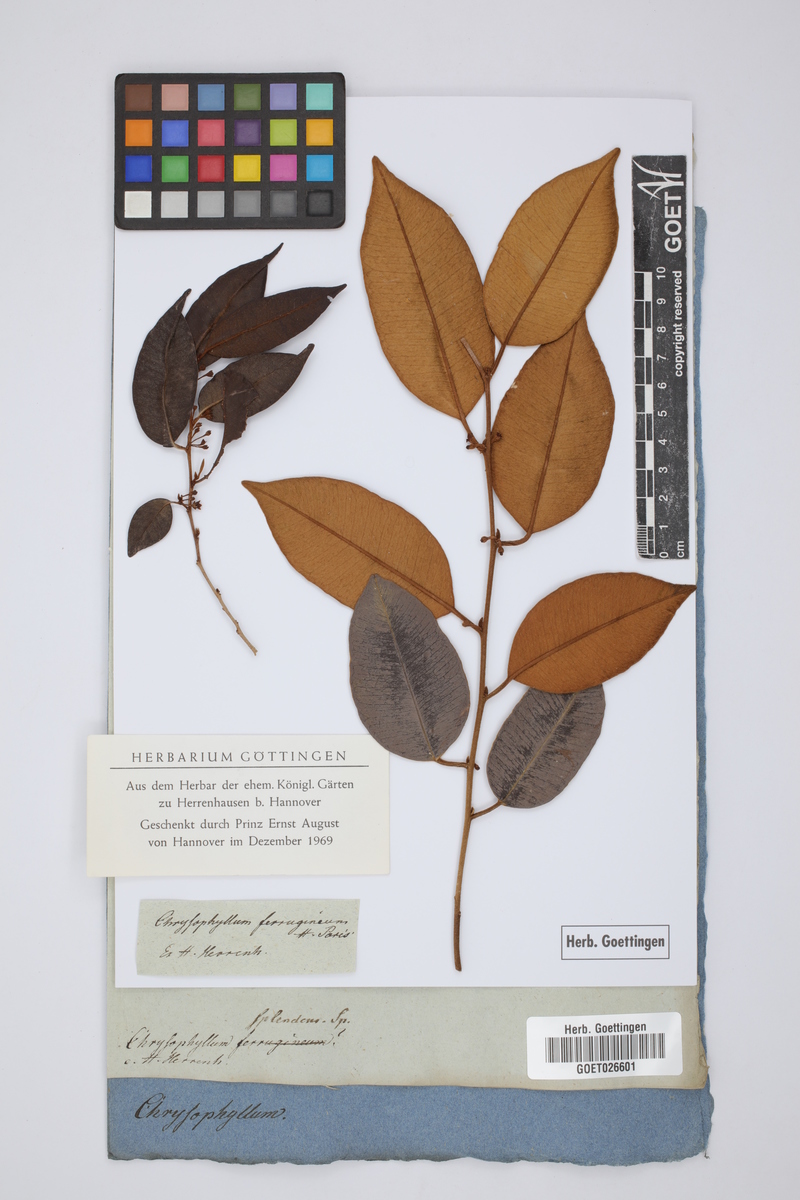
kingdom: Plantae
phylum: Tracheophyta
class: Magnoliopsida
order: Ericales
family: Sapotaceae
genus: Chrysophyllum
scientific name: Chrysophyllum splendens
